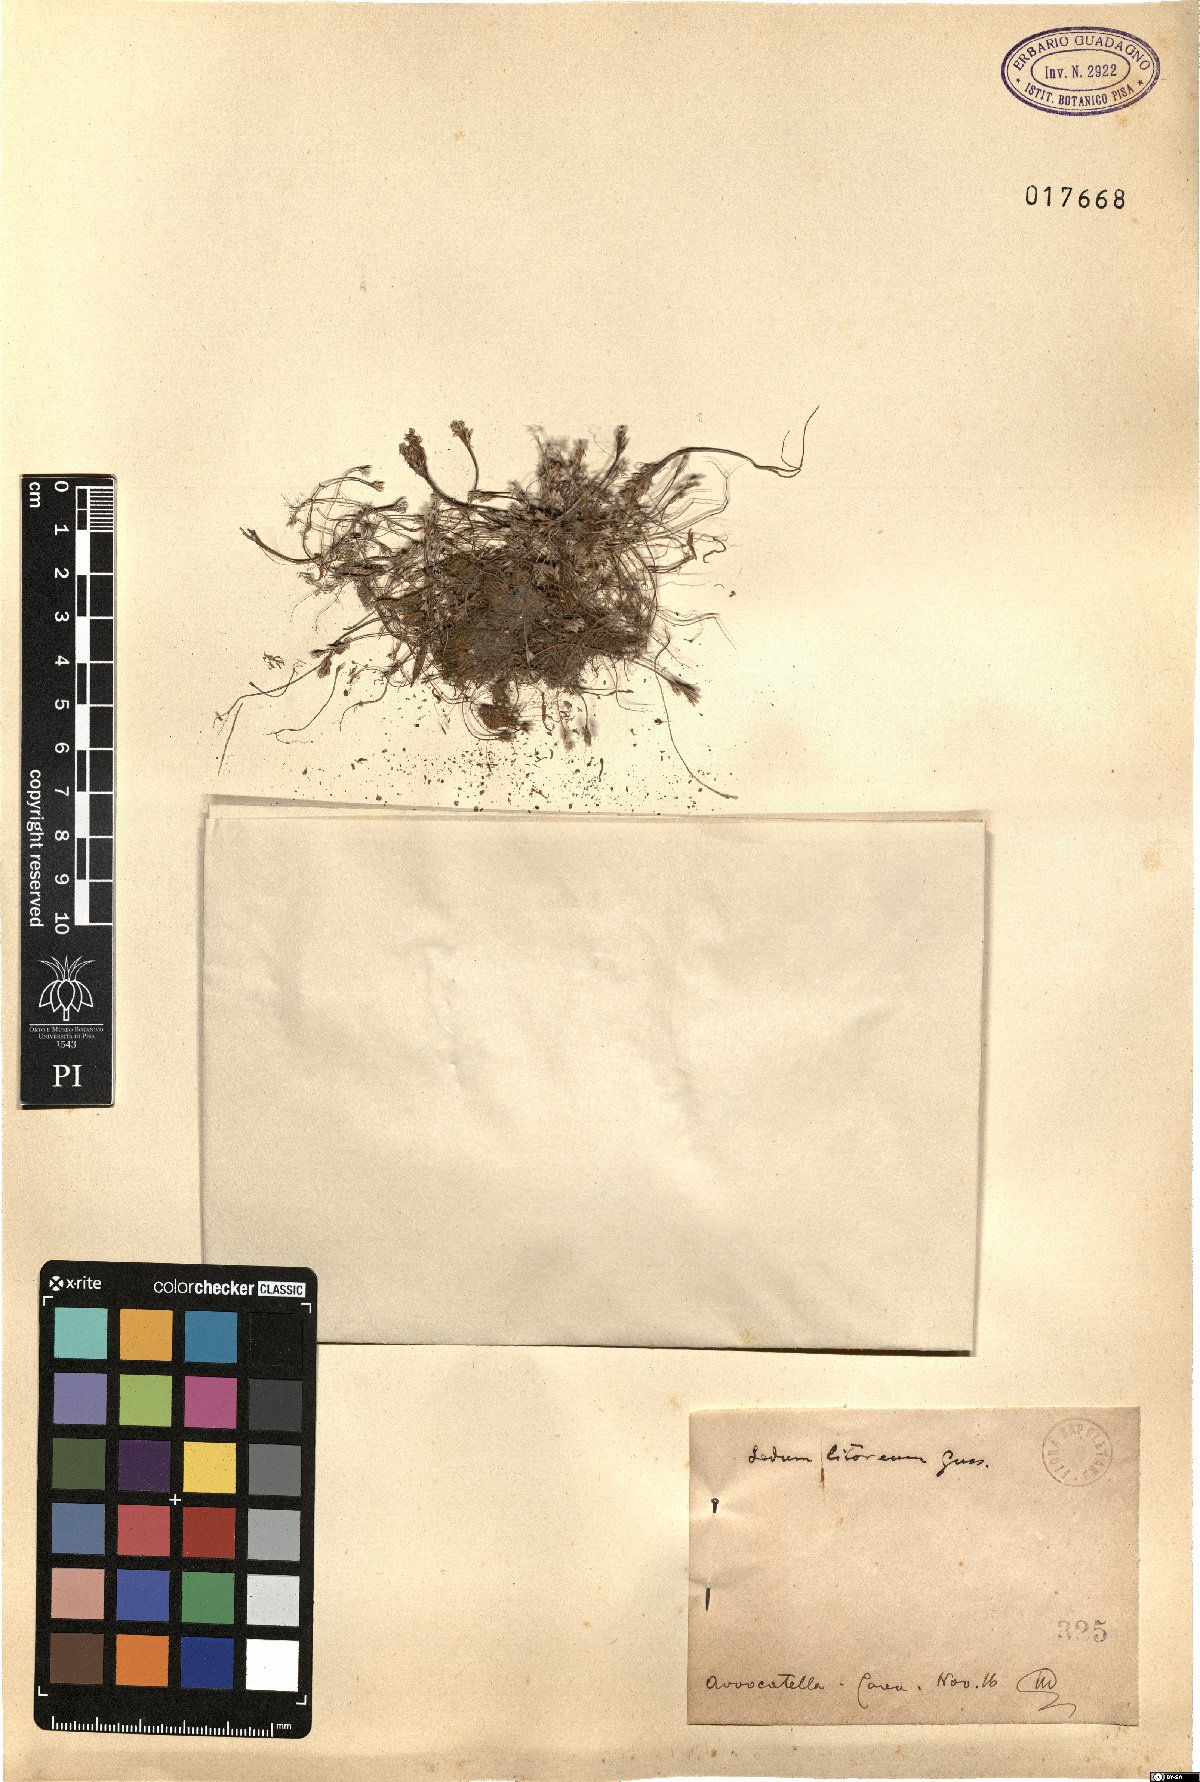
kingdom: Plantae
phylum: Tracheophyta
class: Magnoliopsida
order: Saxifragales
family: Crassulaceae
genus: Sedum
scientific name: Sedum litoreum
